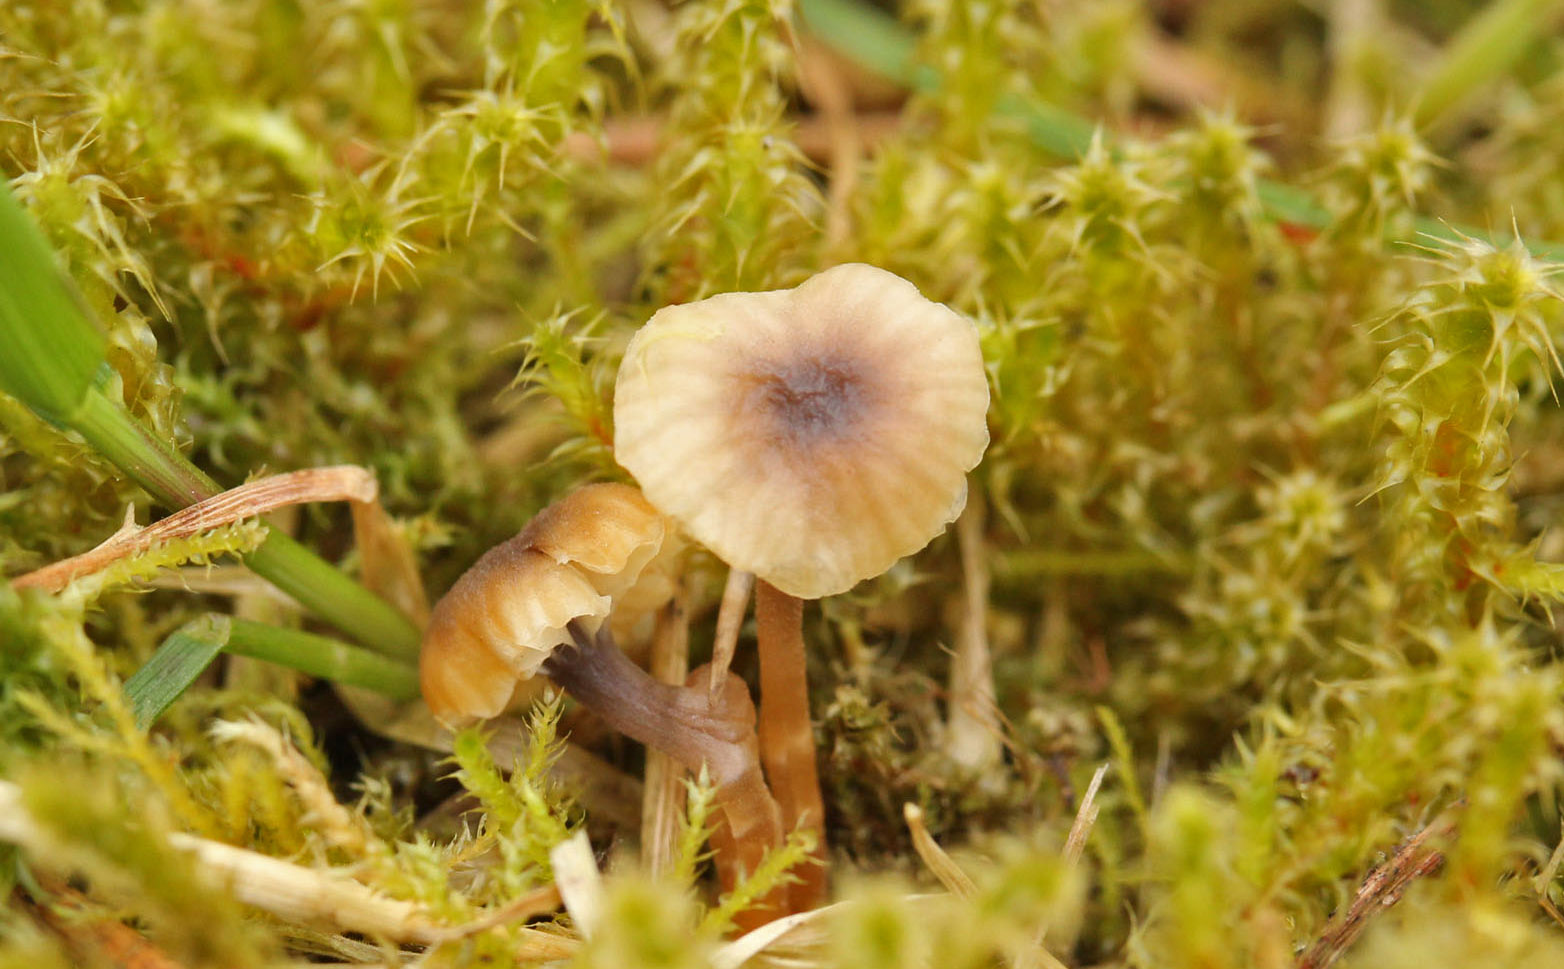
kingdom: Fungi
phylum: Basidiomycota
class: Agaricomycetes
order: Hymenochaetales
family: Rickenellaceae
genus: Rickenella
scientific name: Rickenella swartzii
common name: finstokket mosnavlehat
